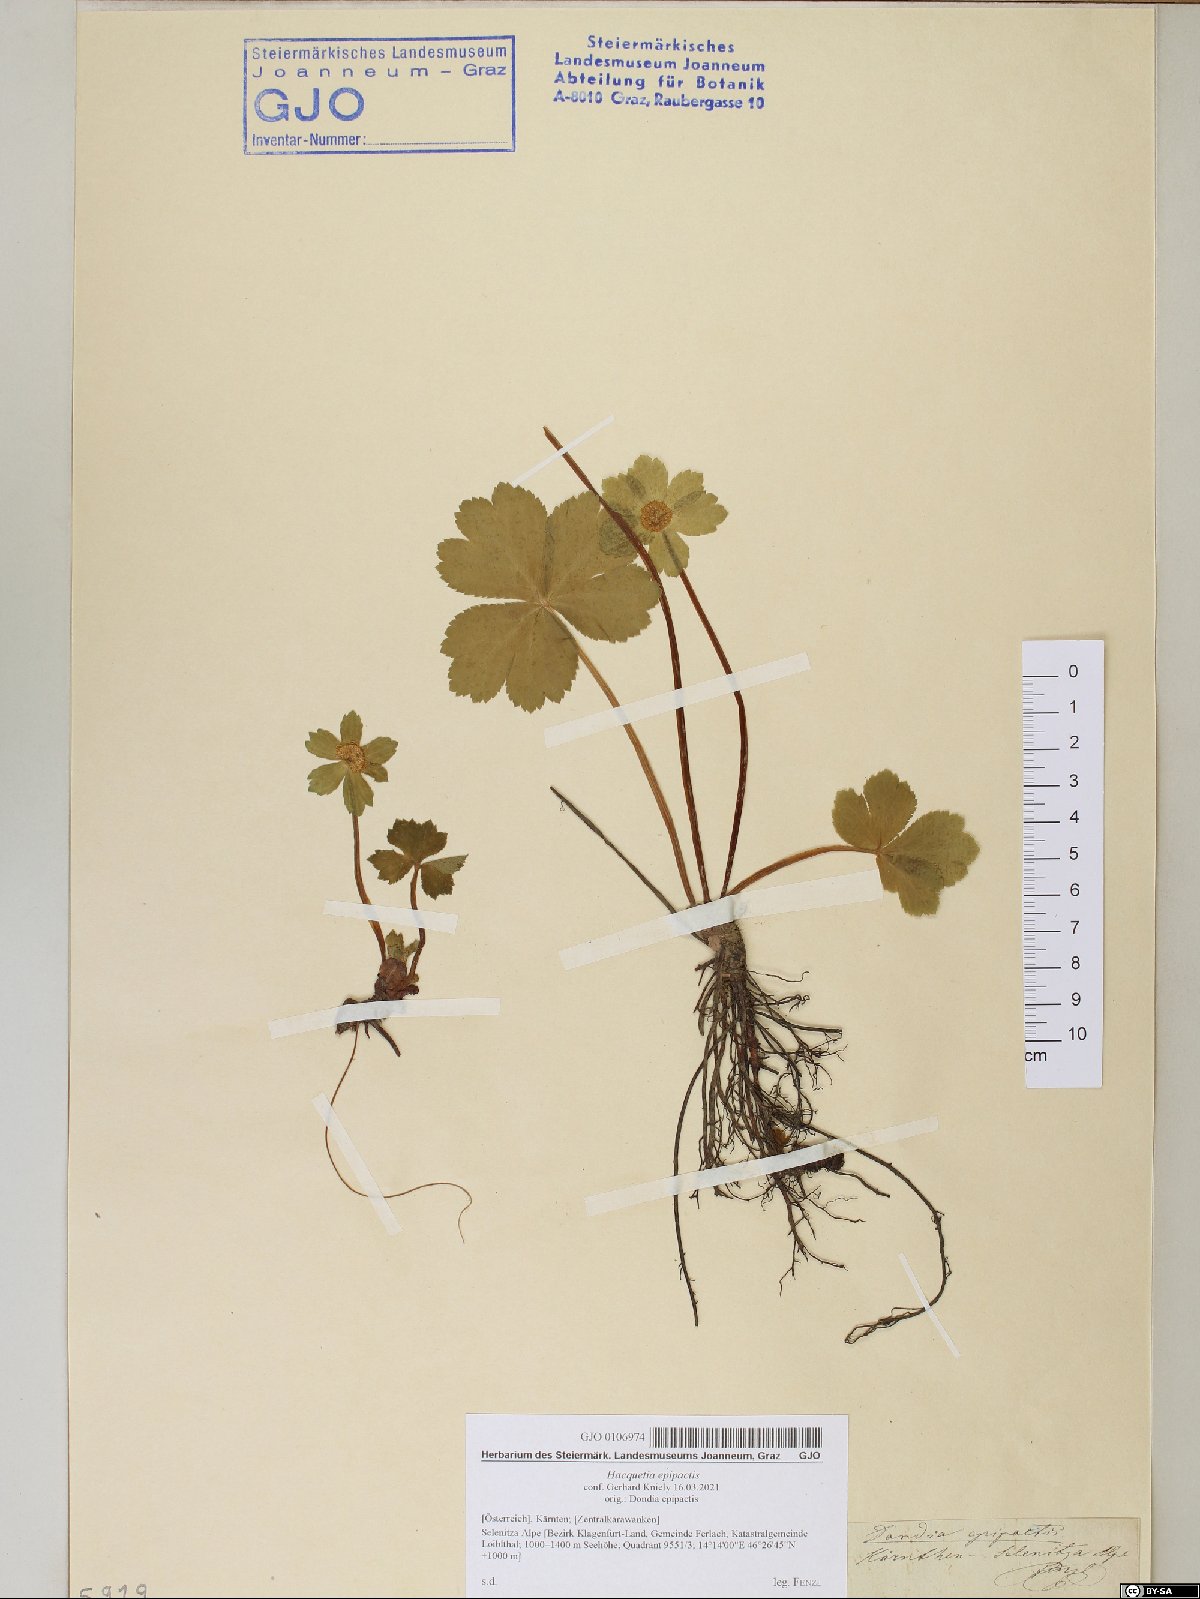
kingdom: Plantae
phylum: Tracheophyta
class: Magnoliopsida
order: Apiales
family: Apiaceae
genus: Sanicula
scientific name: Sanicula epipactis
